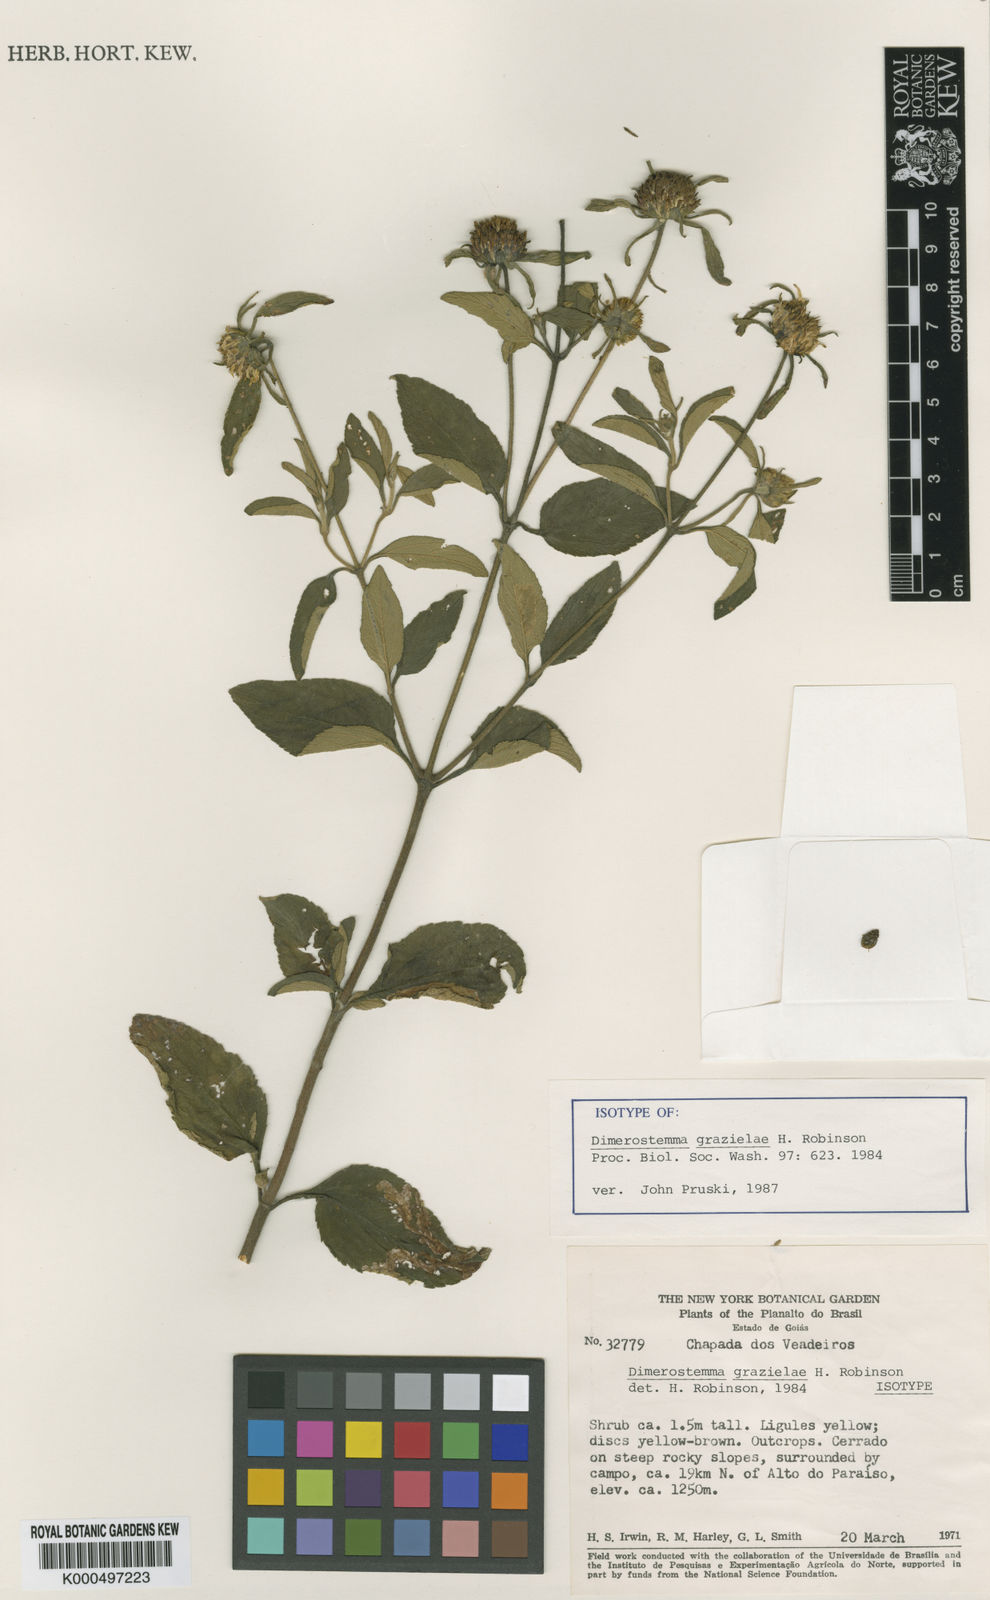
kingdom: Plantae
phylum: Tracheophyta
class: Magnoliopsida
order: Asterales
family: Asteraceae
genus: Dimerostemma
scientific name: Dimerostemma grazielae
